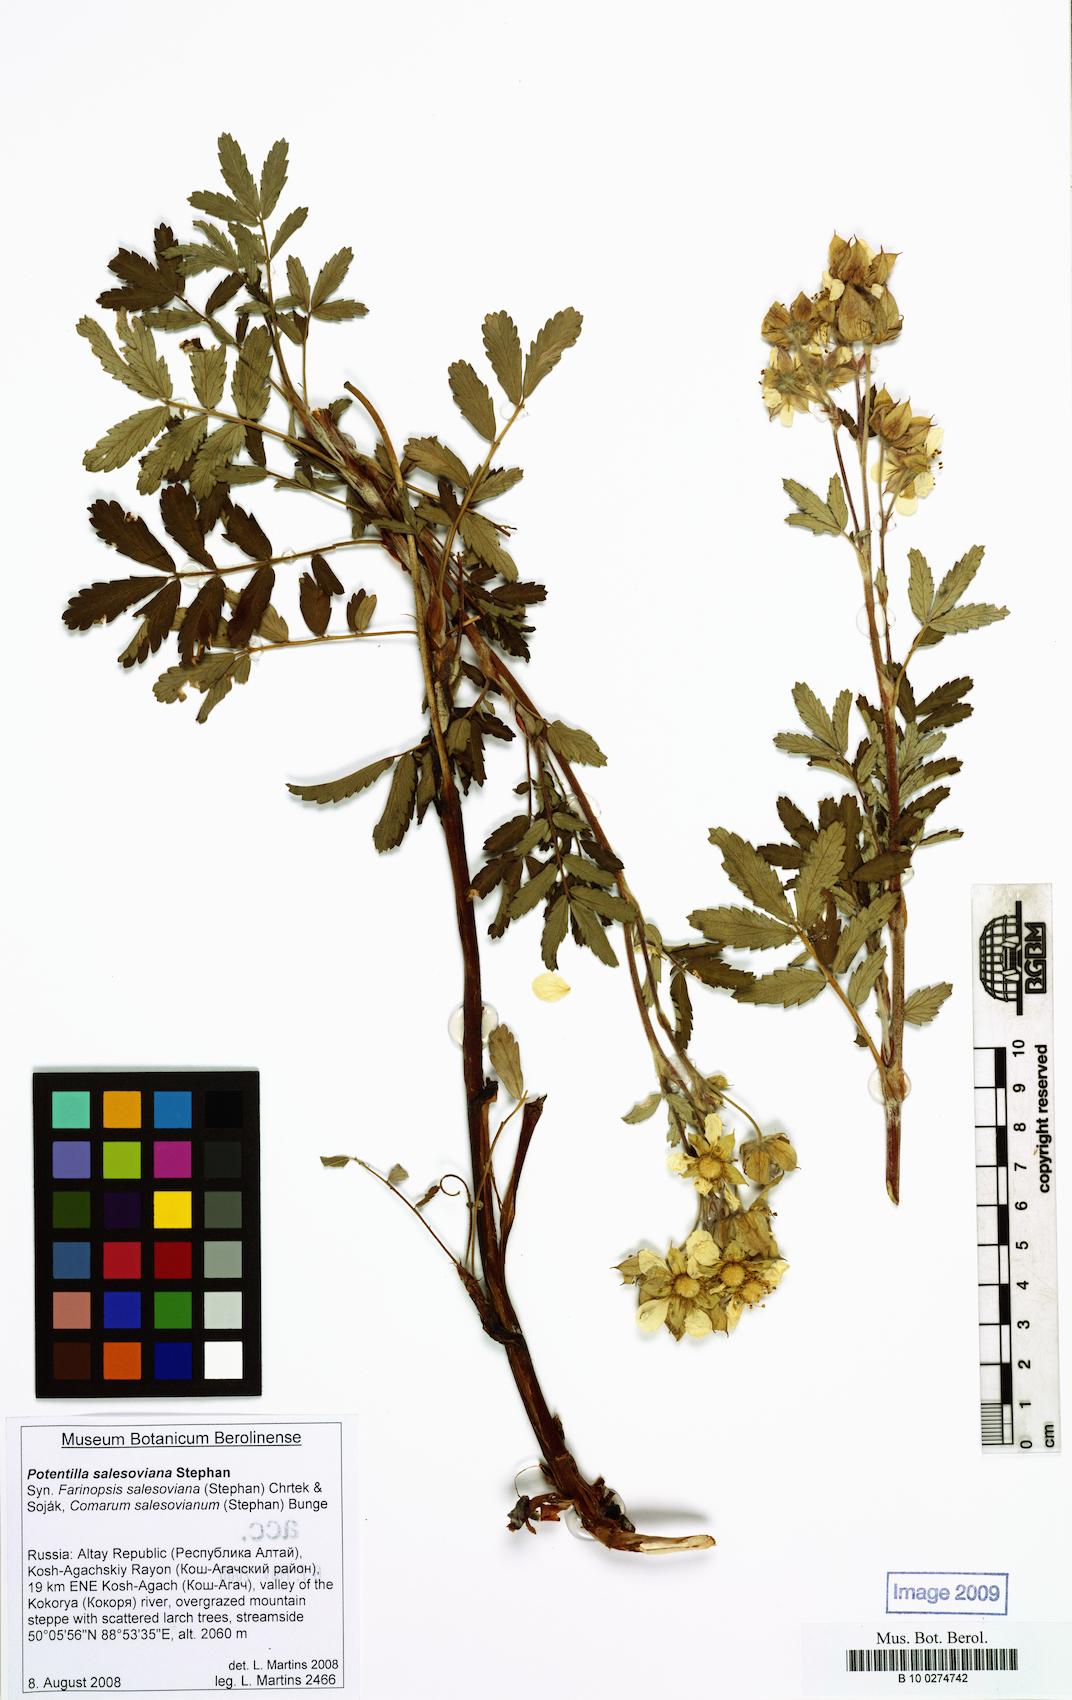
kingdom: Plantae
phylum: Tracheophyta
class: Magnoliopsida
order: Rosales
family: Rosaceae
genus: Farinopsis
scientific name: Farinopsis salesoviana
